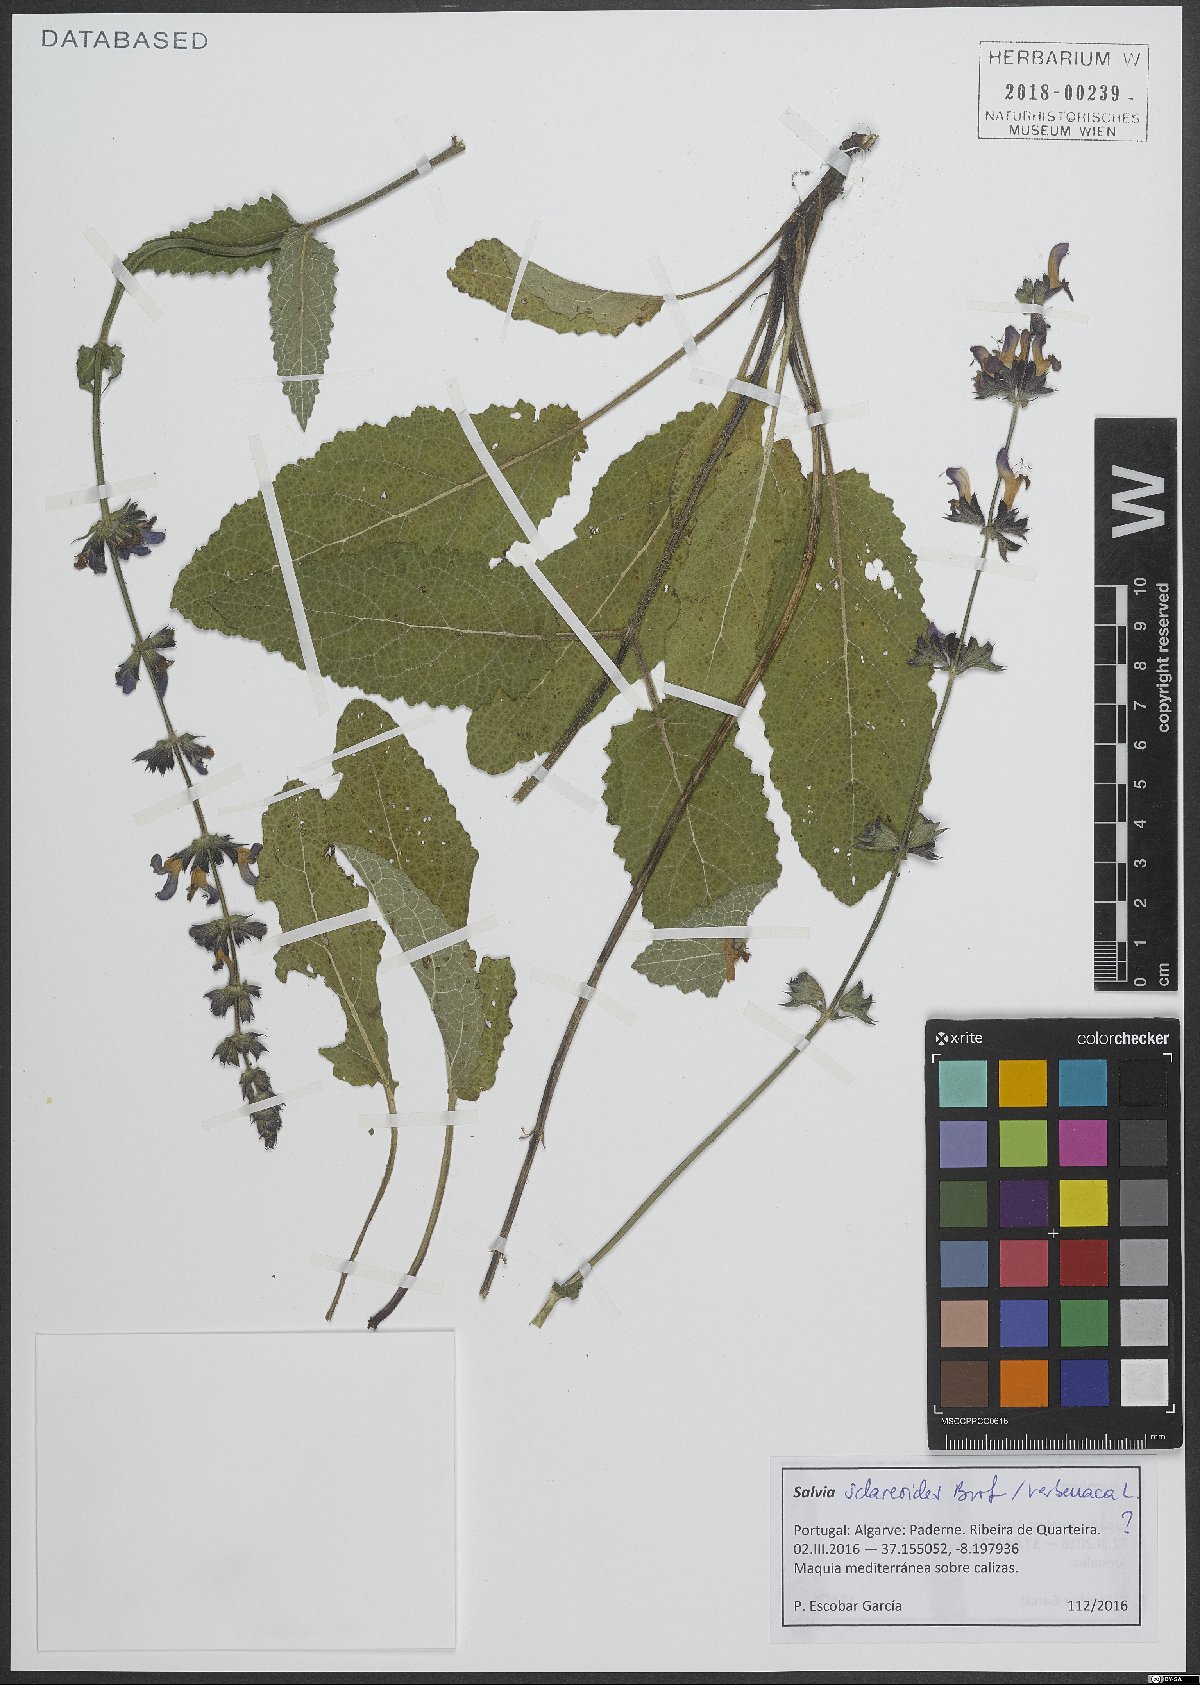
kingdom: Plantae
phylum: Tracheophyta
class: Magnoliopsida
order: Lamiales
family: Lamiaceae
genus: Salvia
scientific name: Salvia sclareoides
